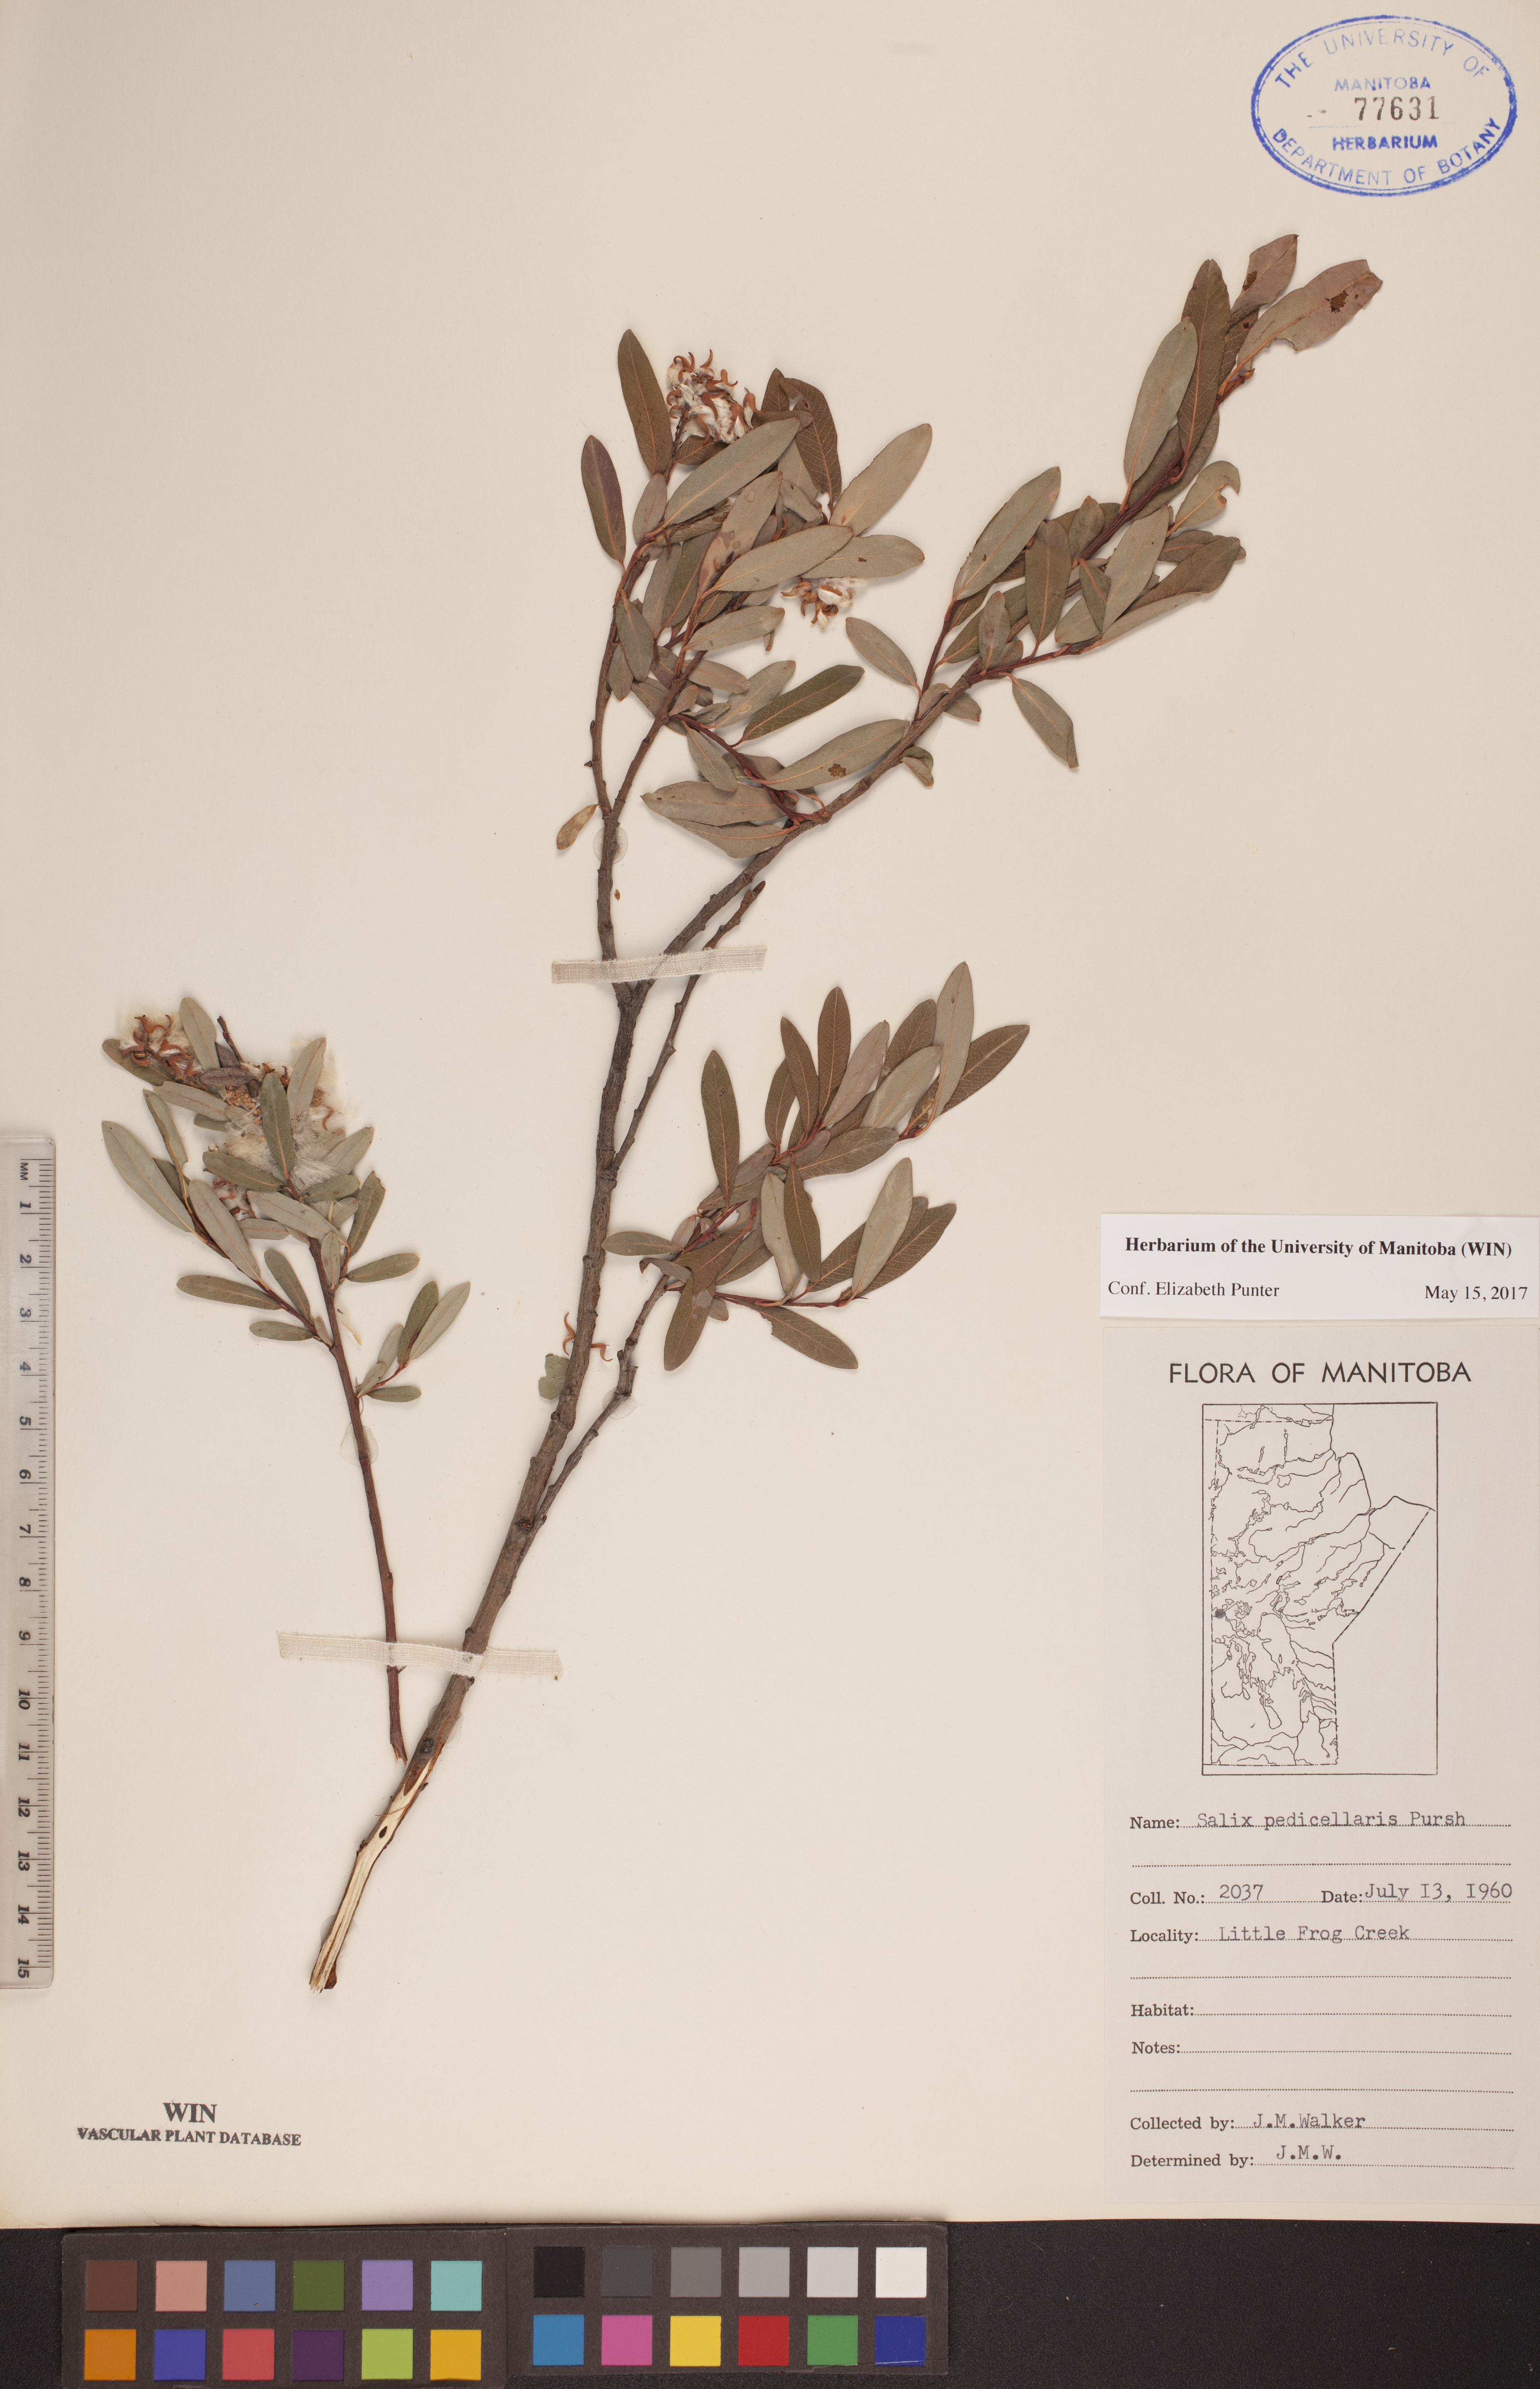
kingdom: Plantae
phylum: Tracheophyta
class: Magnoliopsida
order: Malpighiales
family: Salicaceae
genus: Salix
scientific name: Salix pedicellaris
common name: Bog willow
